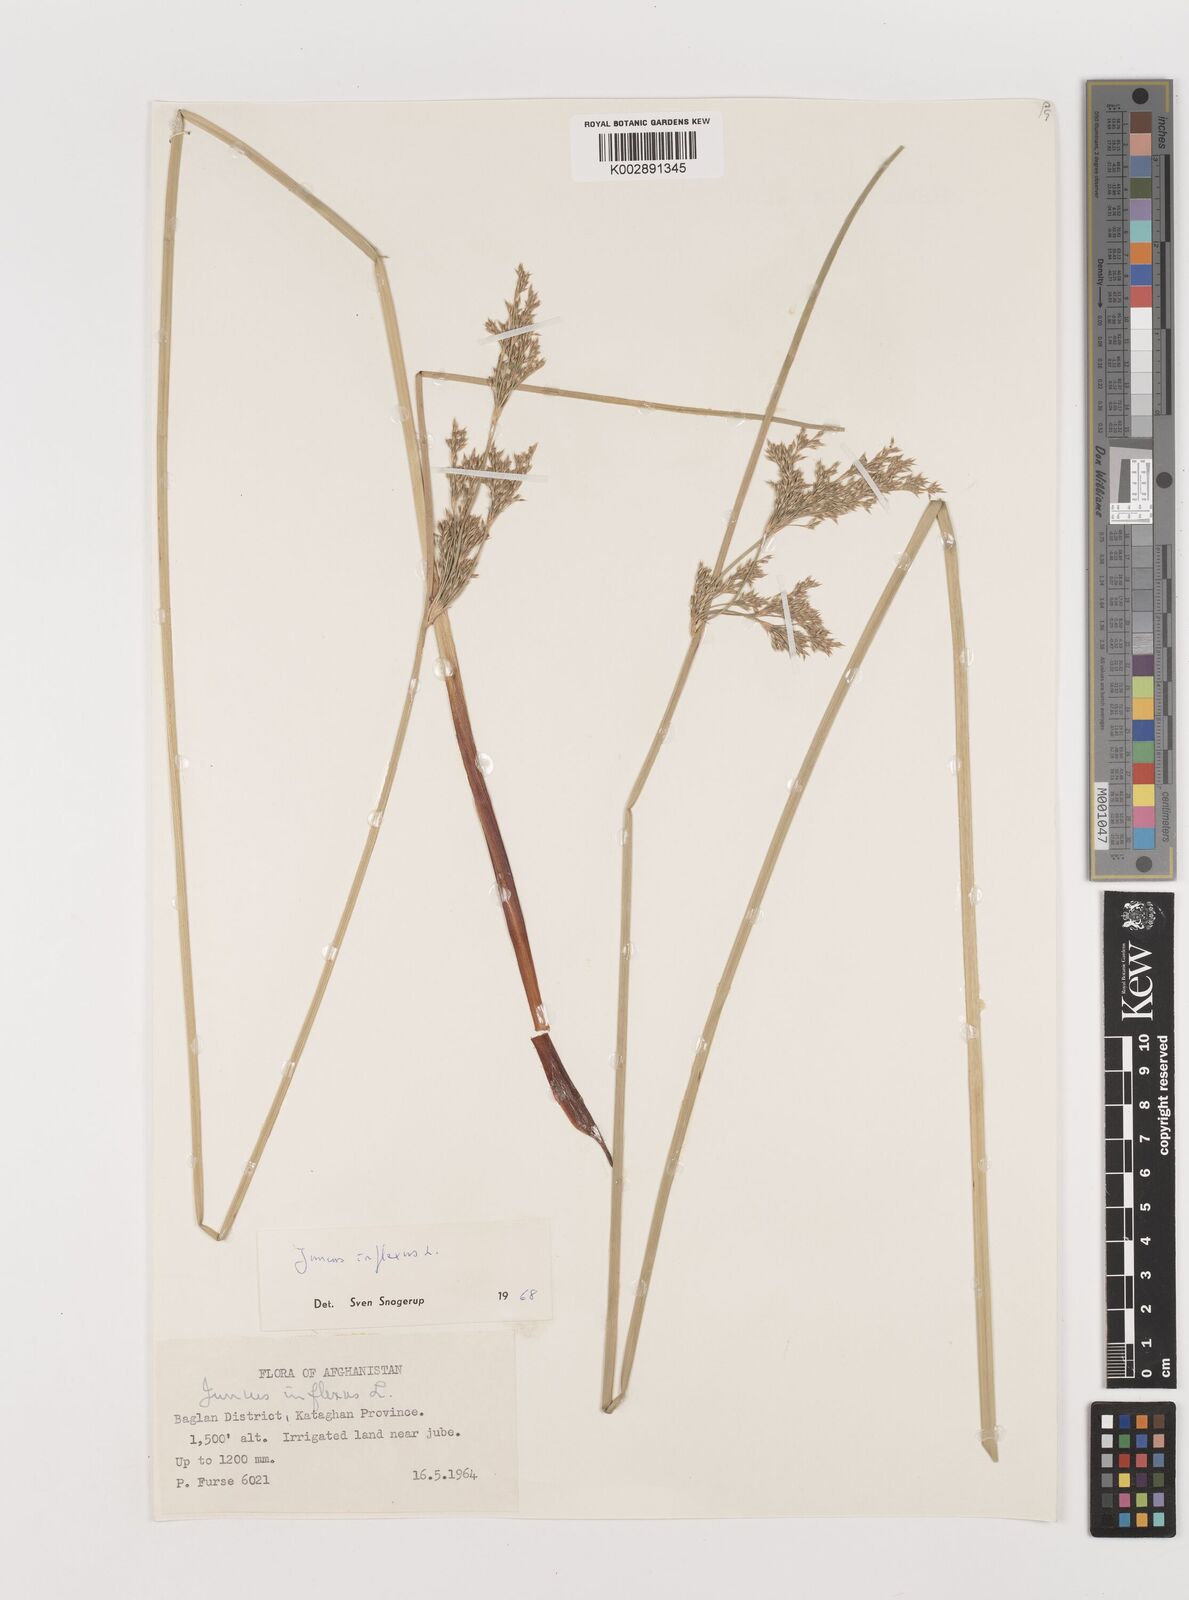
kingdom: Plantae
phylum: Tracheophyta
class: Liliopsida
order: Poales
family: Juncaceae
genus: Juncus
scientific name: Juncus inflexus
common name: Hard rush
